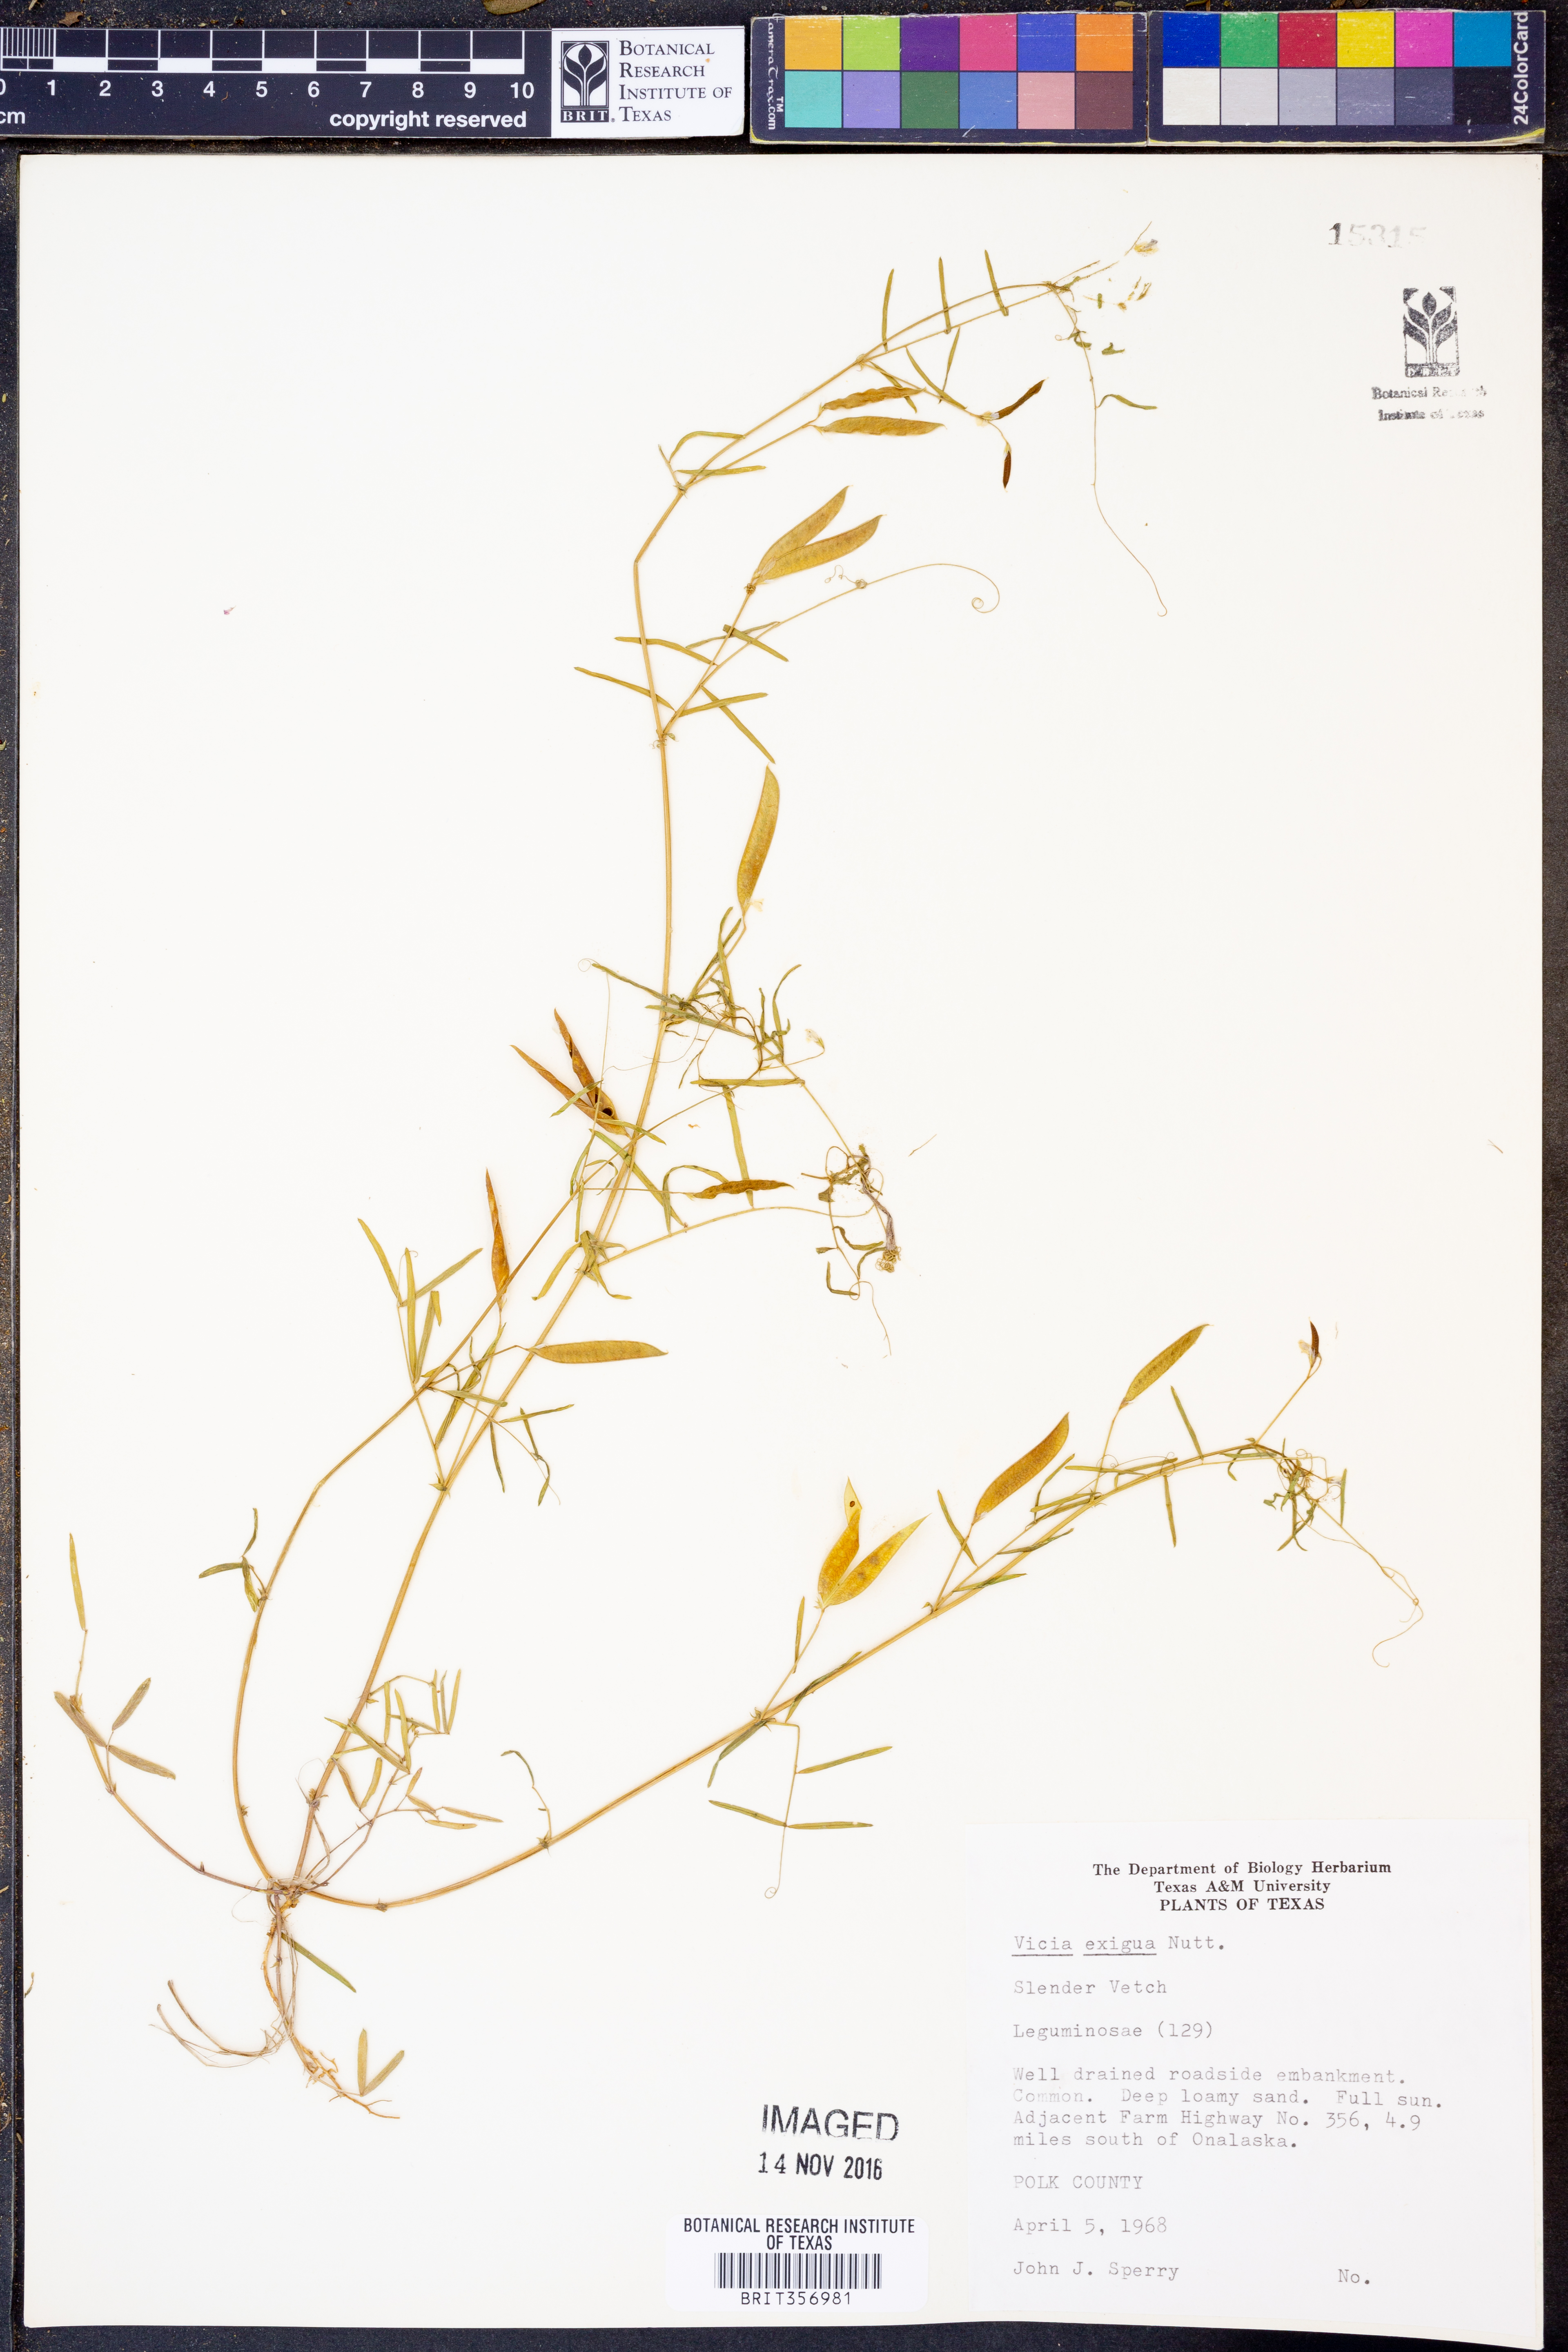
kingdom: Plantae
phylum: Tracheophyta
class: Magnoliopsida
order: Fabales
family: Fabaceae
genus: Vicia
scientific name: Vicia ludoviciana
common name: Louisiana vetch
